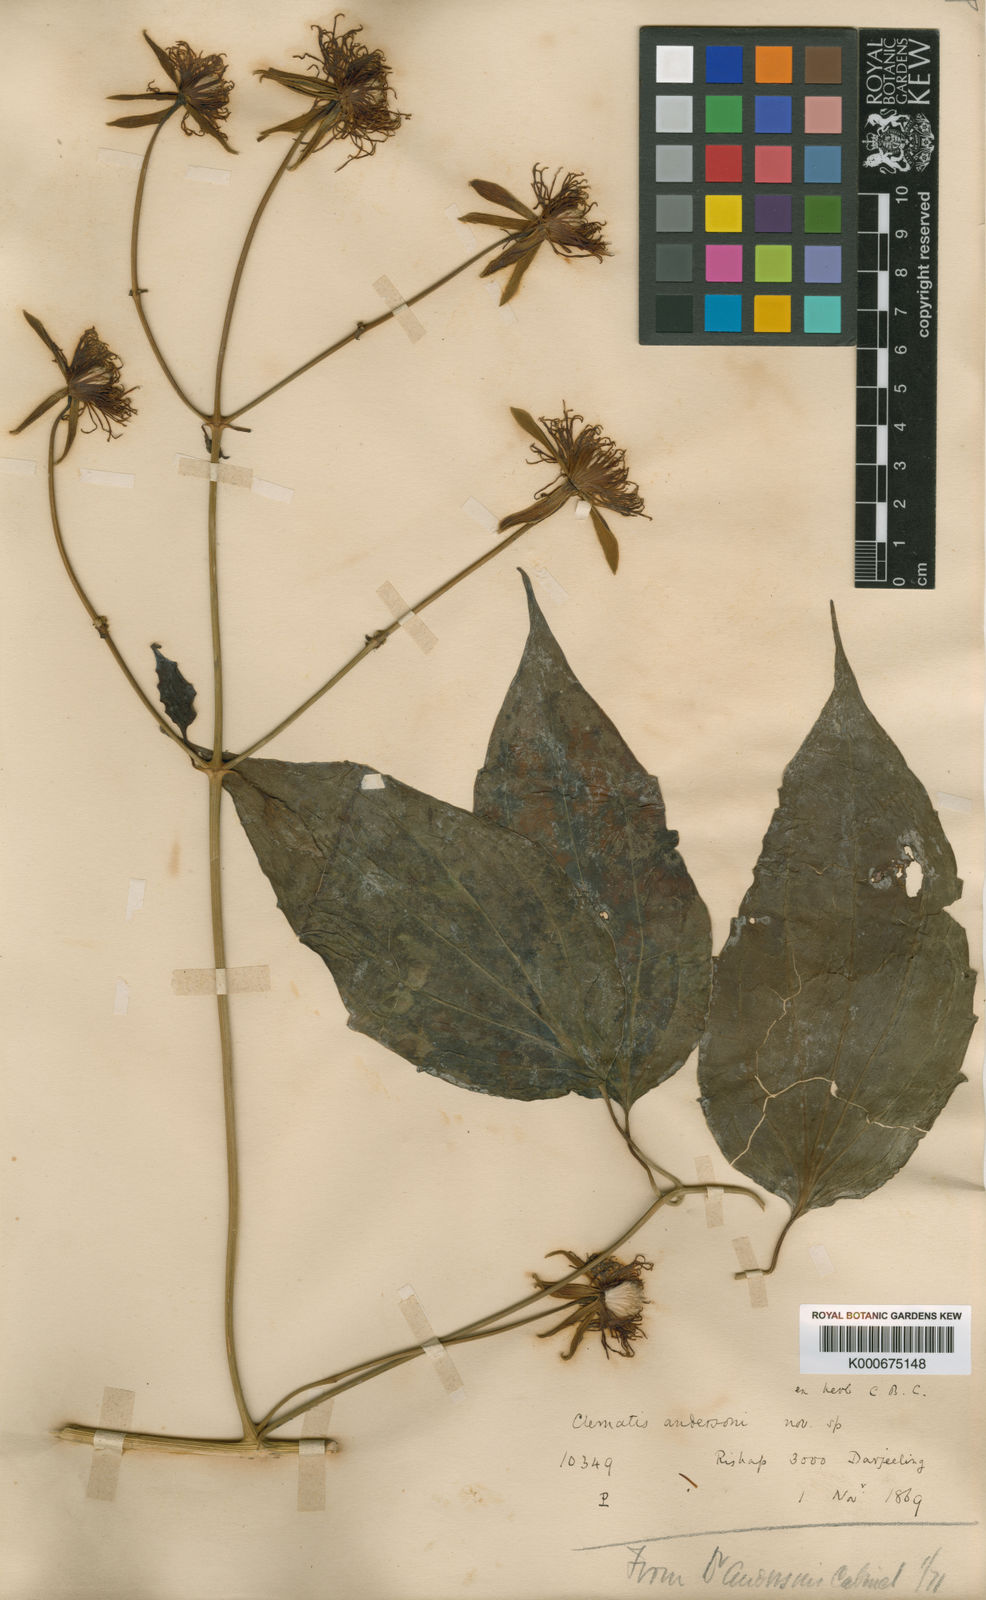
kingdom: Plantae
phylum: Tracheophyta
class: Magnoliopsida
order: Ranunculales
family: Ranunculaceae
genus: Clematis
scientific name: Clematis smilacifolia
